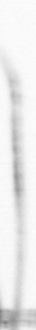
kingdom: Chromista
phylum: Ochrophyta
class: Bacillariophyceae
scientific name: Bacillariophyceae
